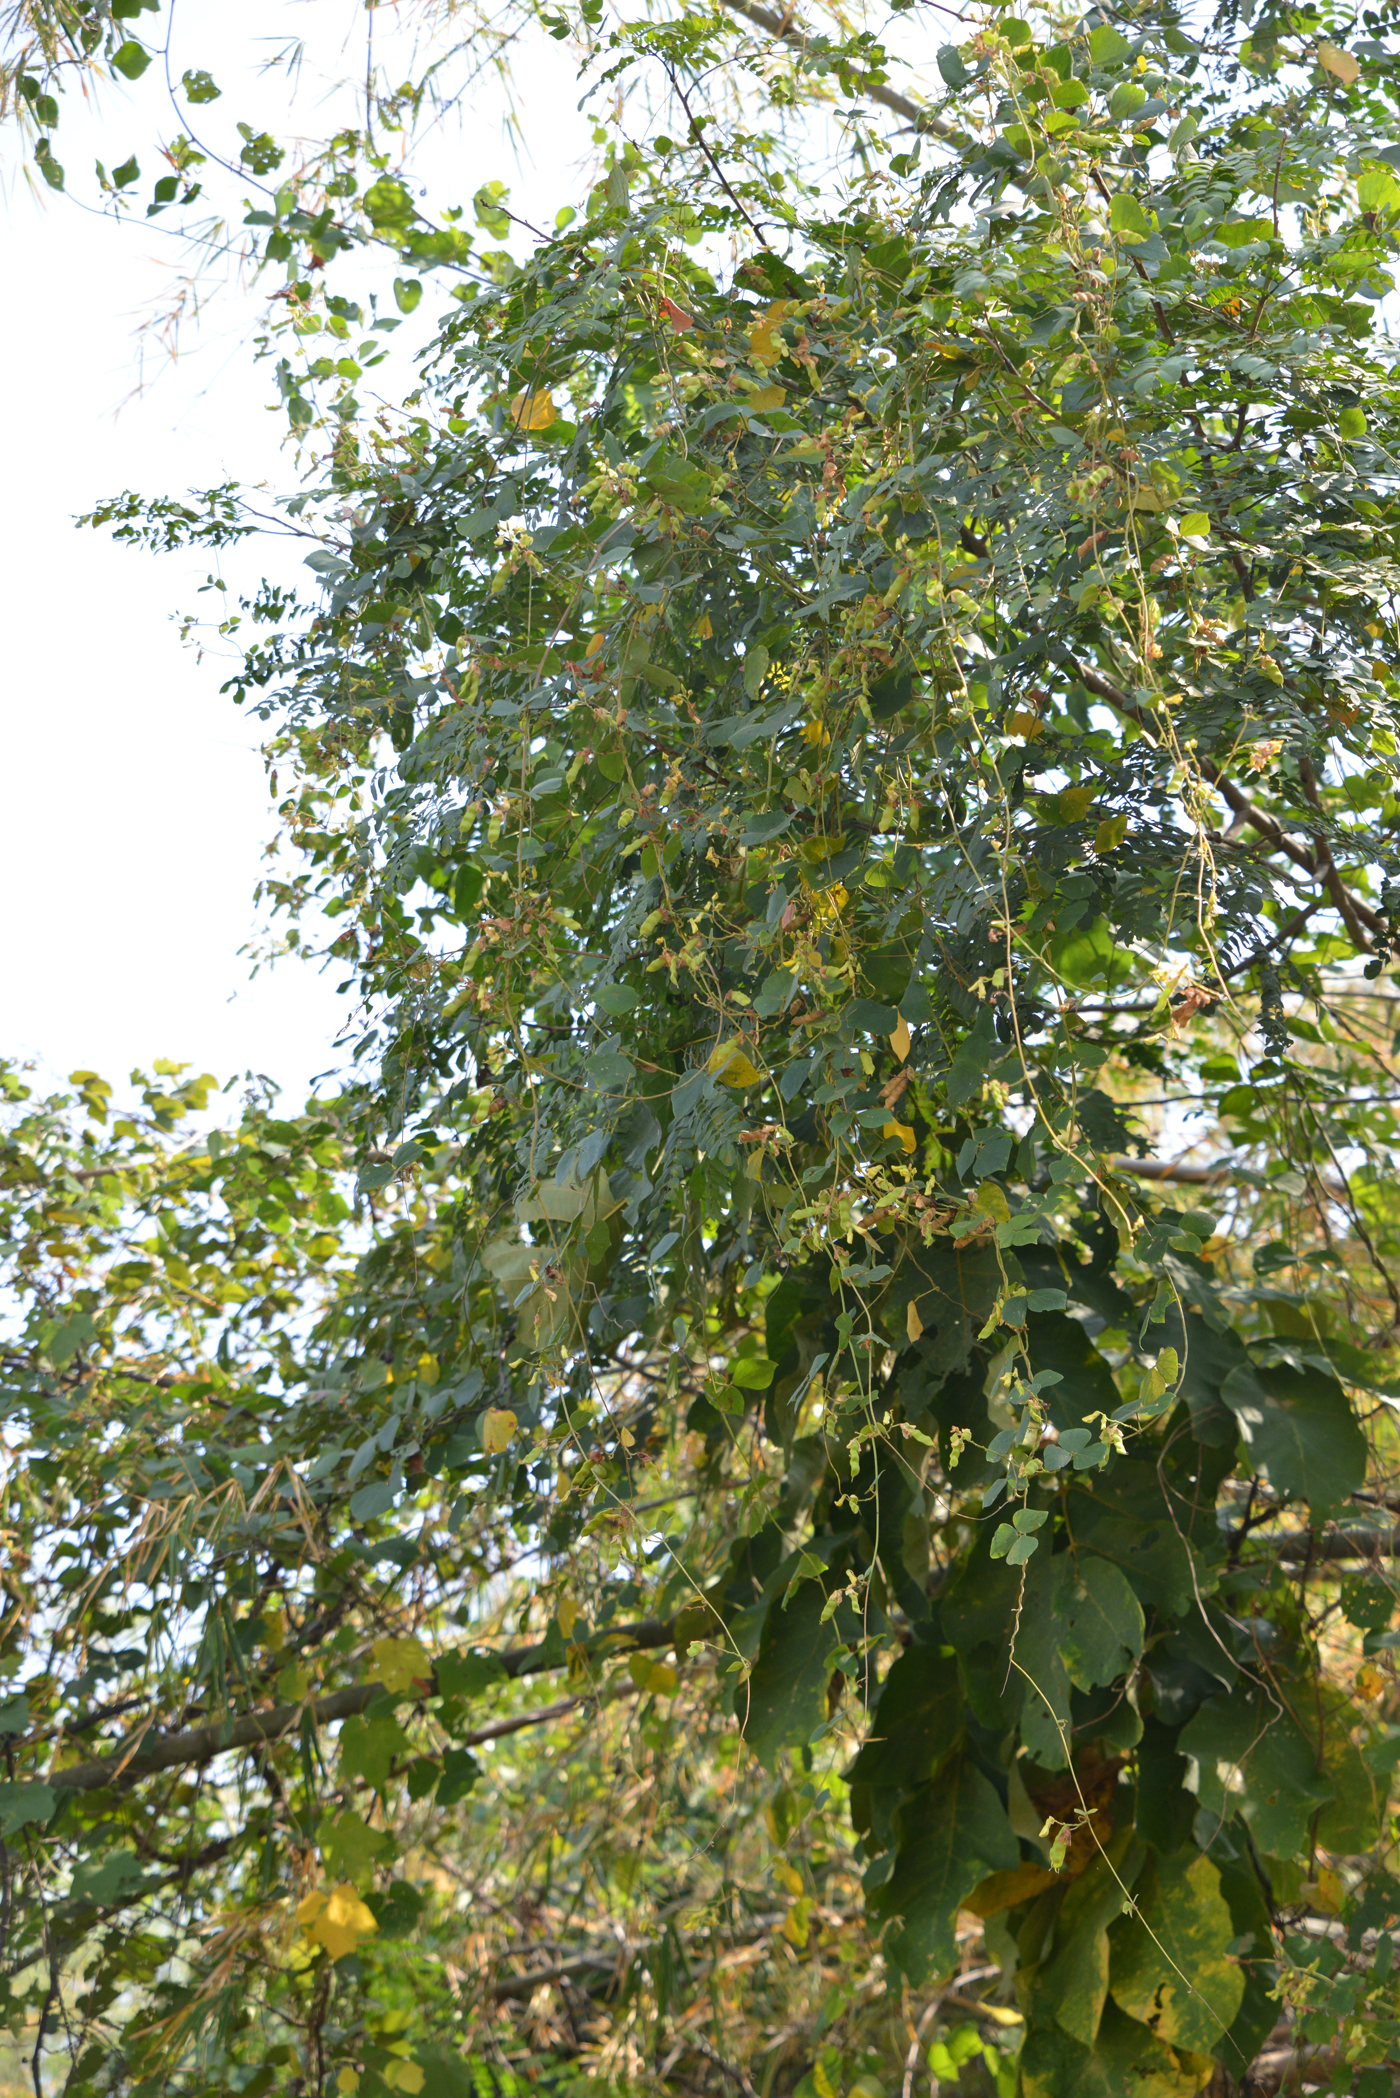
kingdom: Plantae
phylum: Tracheophyta
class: Magnoliopsida
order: Fabales
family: Fabaceae
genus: Cajanus
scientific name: Cajanus crassus
